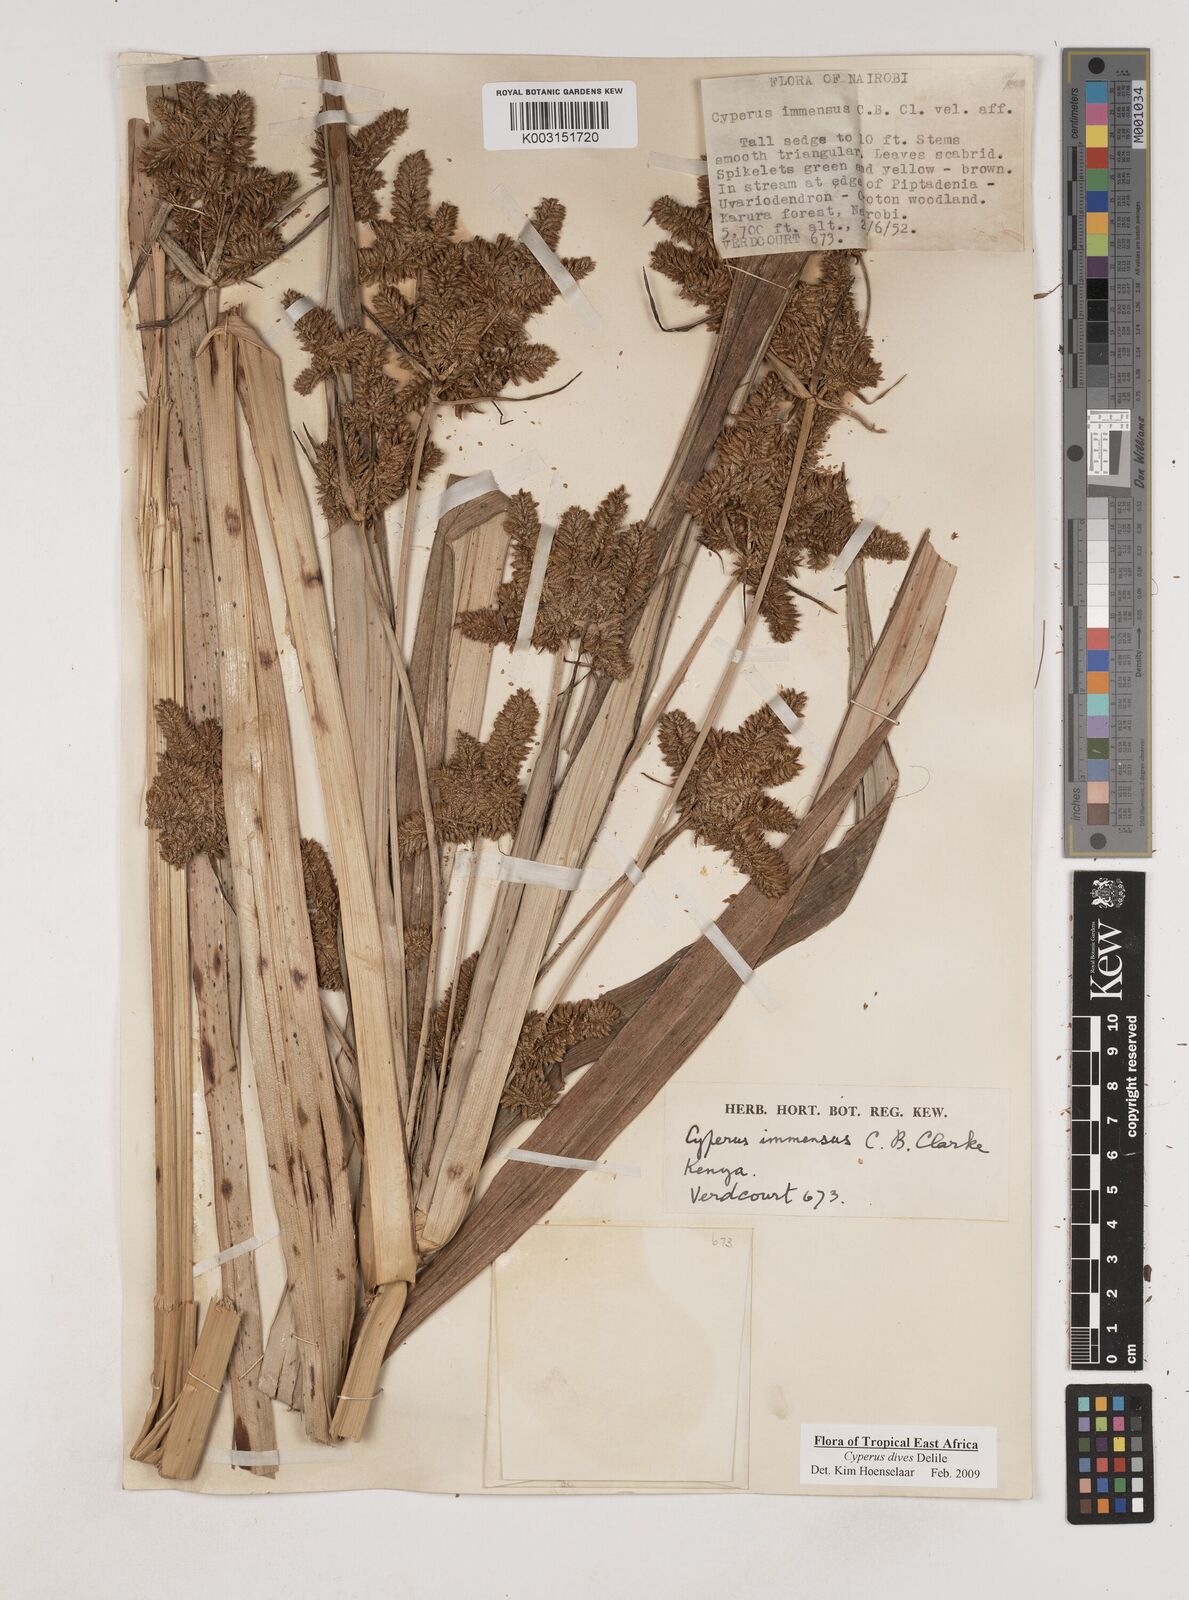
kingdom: Plantae
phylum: Tracheophyta
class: Liliopsida
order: Poales
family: Cyperaceae
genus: Cyperus
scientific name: Cyperus dives
